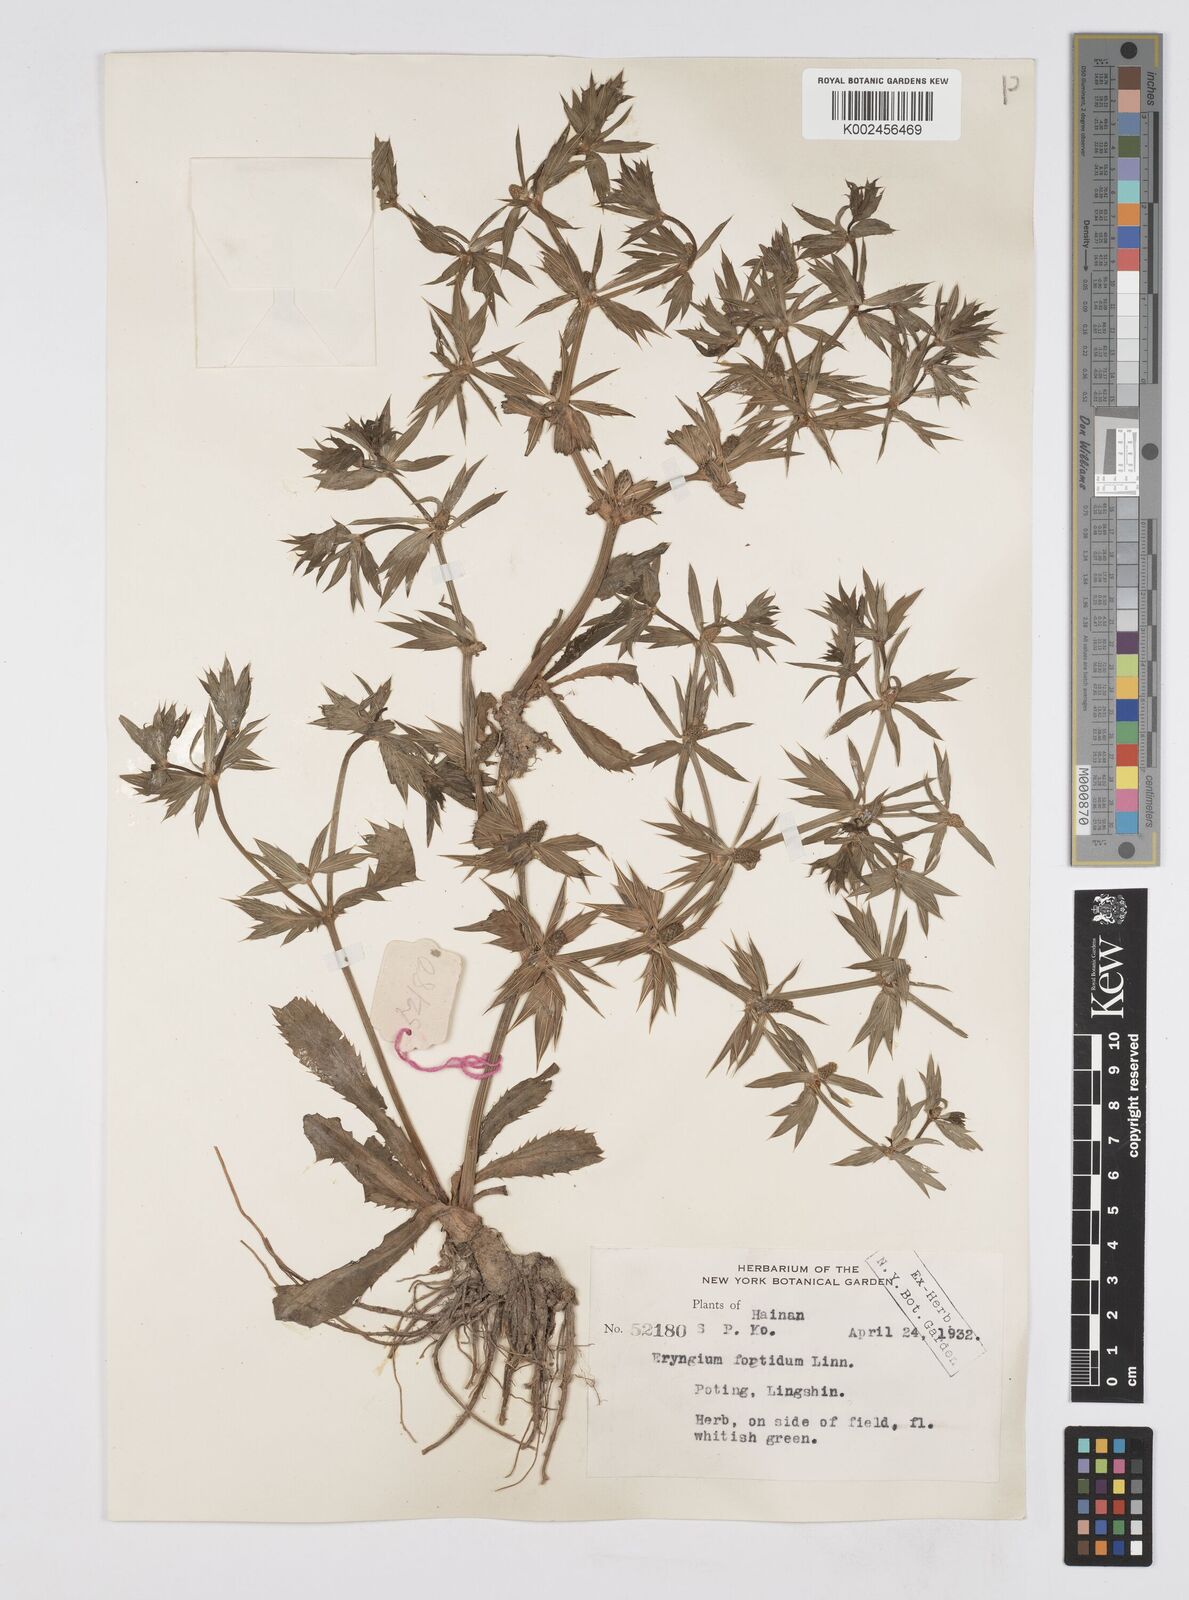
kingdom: Plantae
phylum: Tracheophyta
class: Magnoliopsida
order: Apiales
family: Apiaceae
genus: Eryngium
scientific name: Eryngium foetidum
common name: Fitweed
